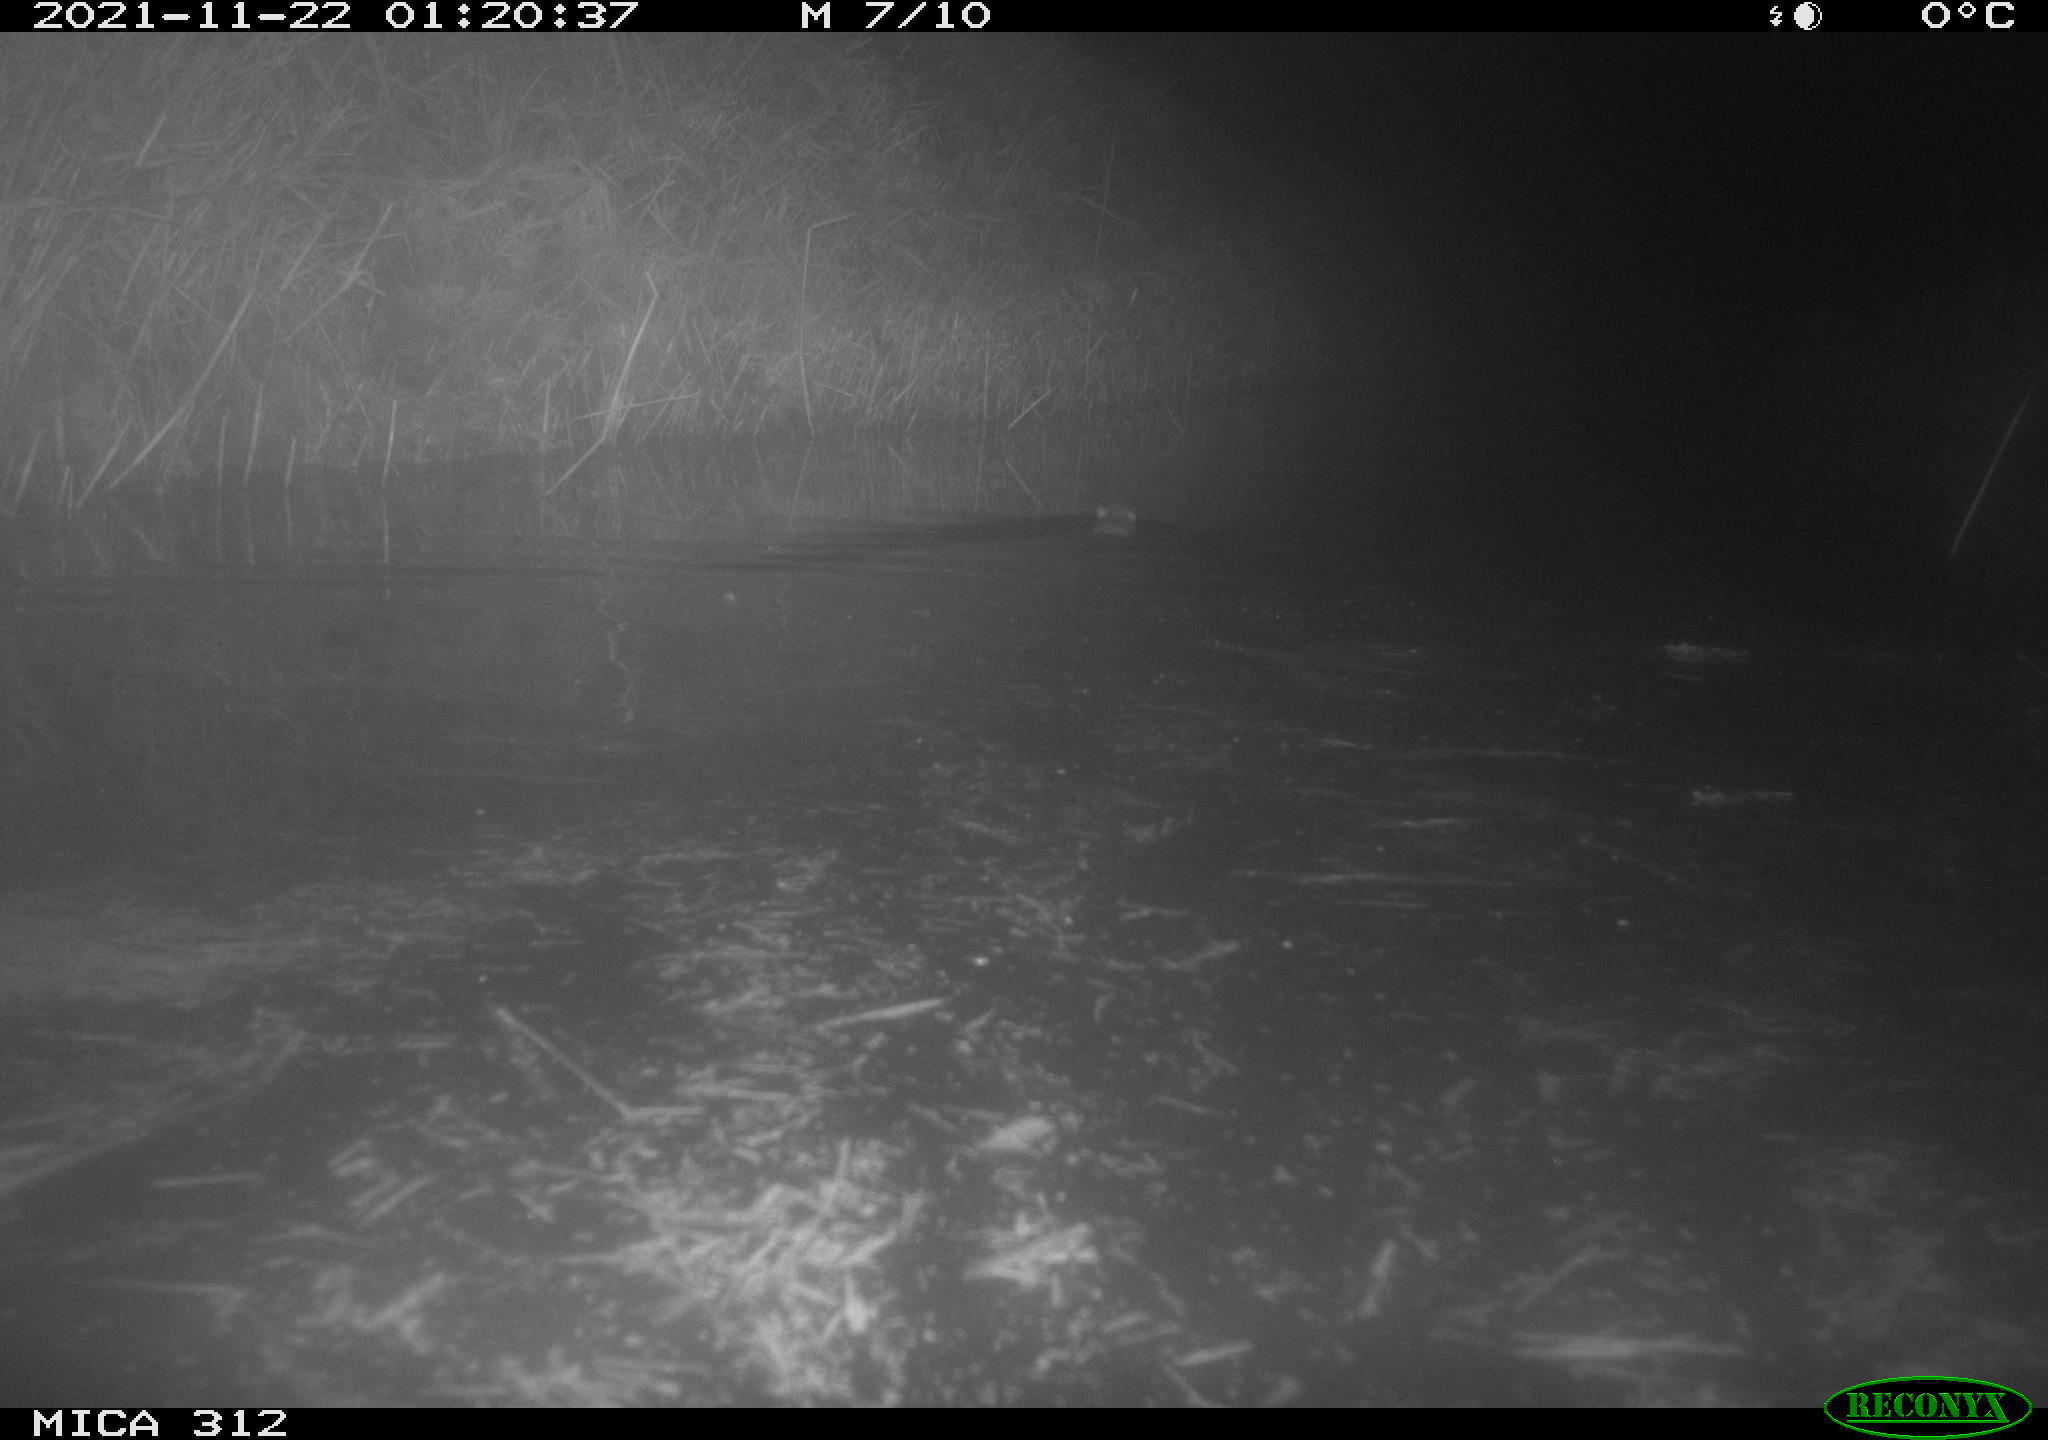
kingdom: Animalia
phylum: Chordata
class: Mammalia
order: Rodentia
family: Muridae
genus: Rattus
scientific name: Rattus norvegicus
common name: Brown rat
